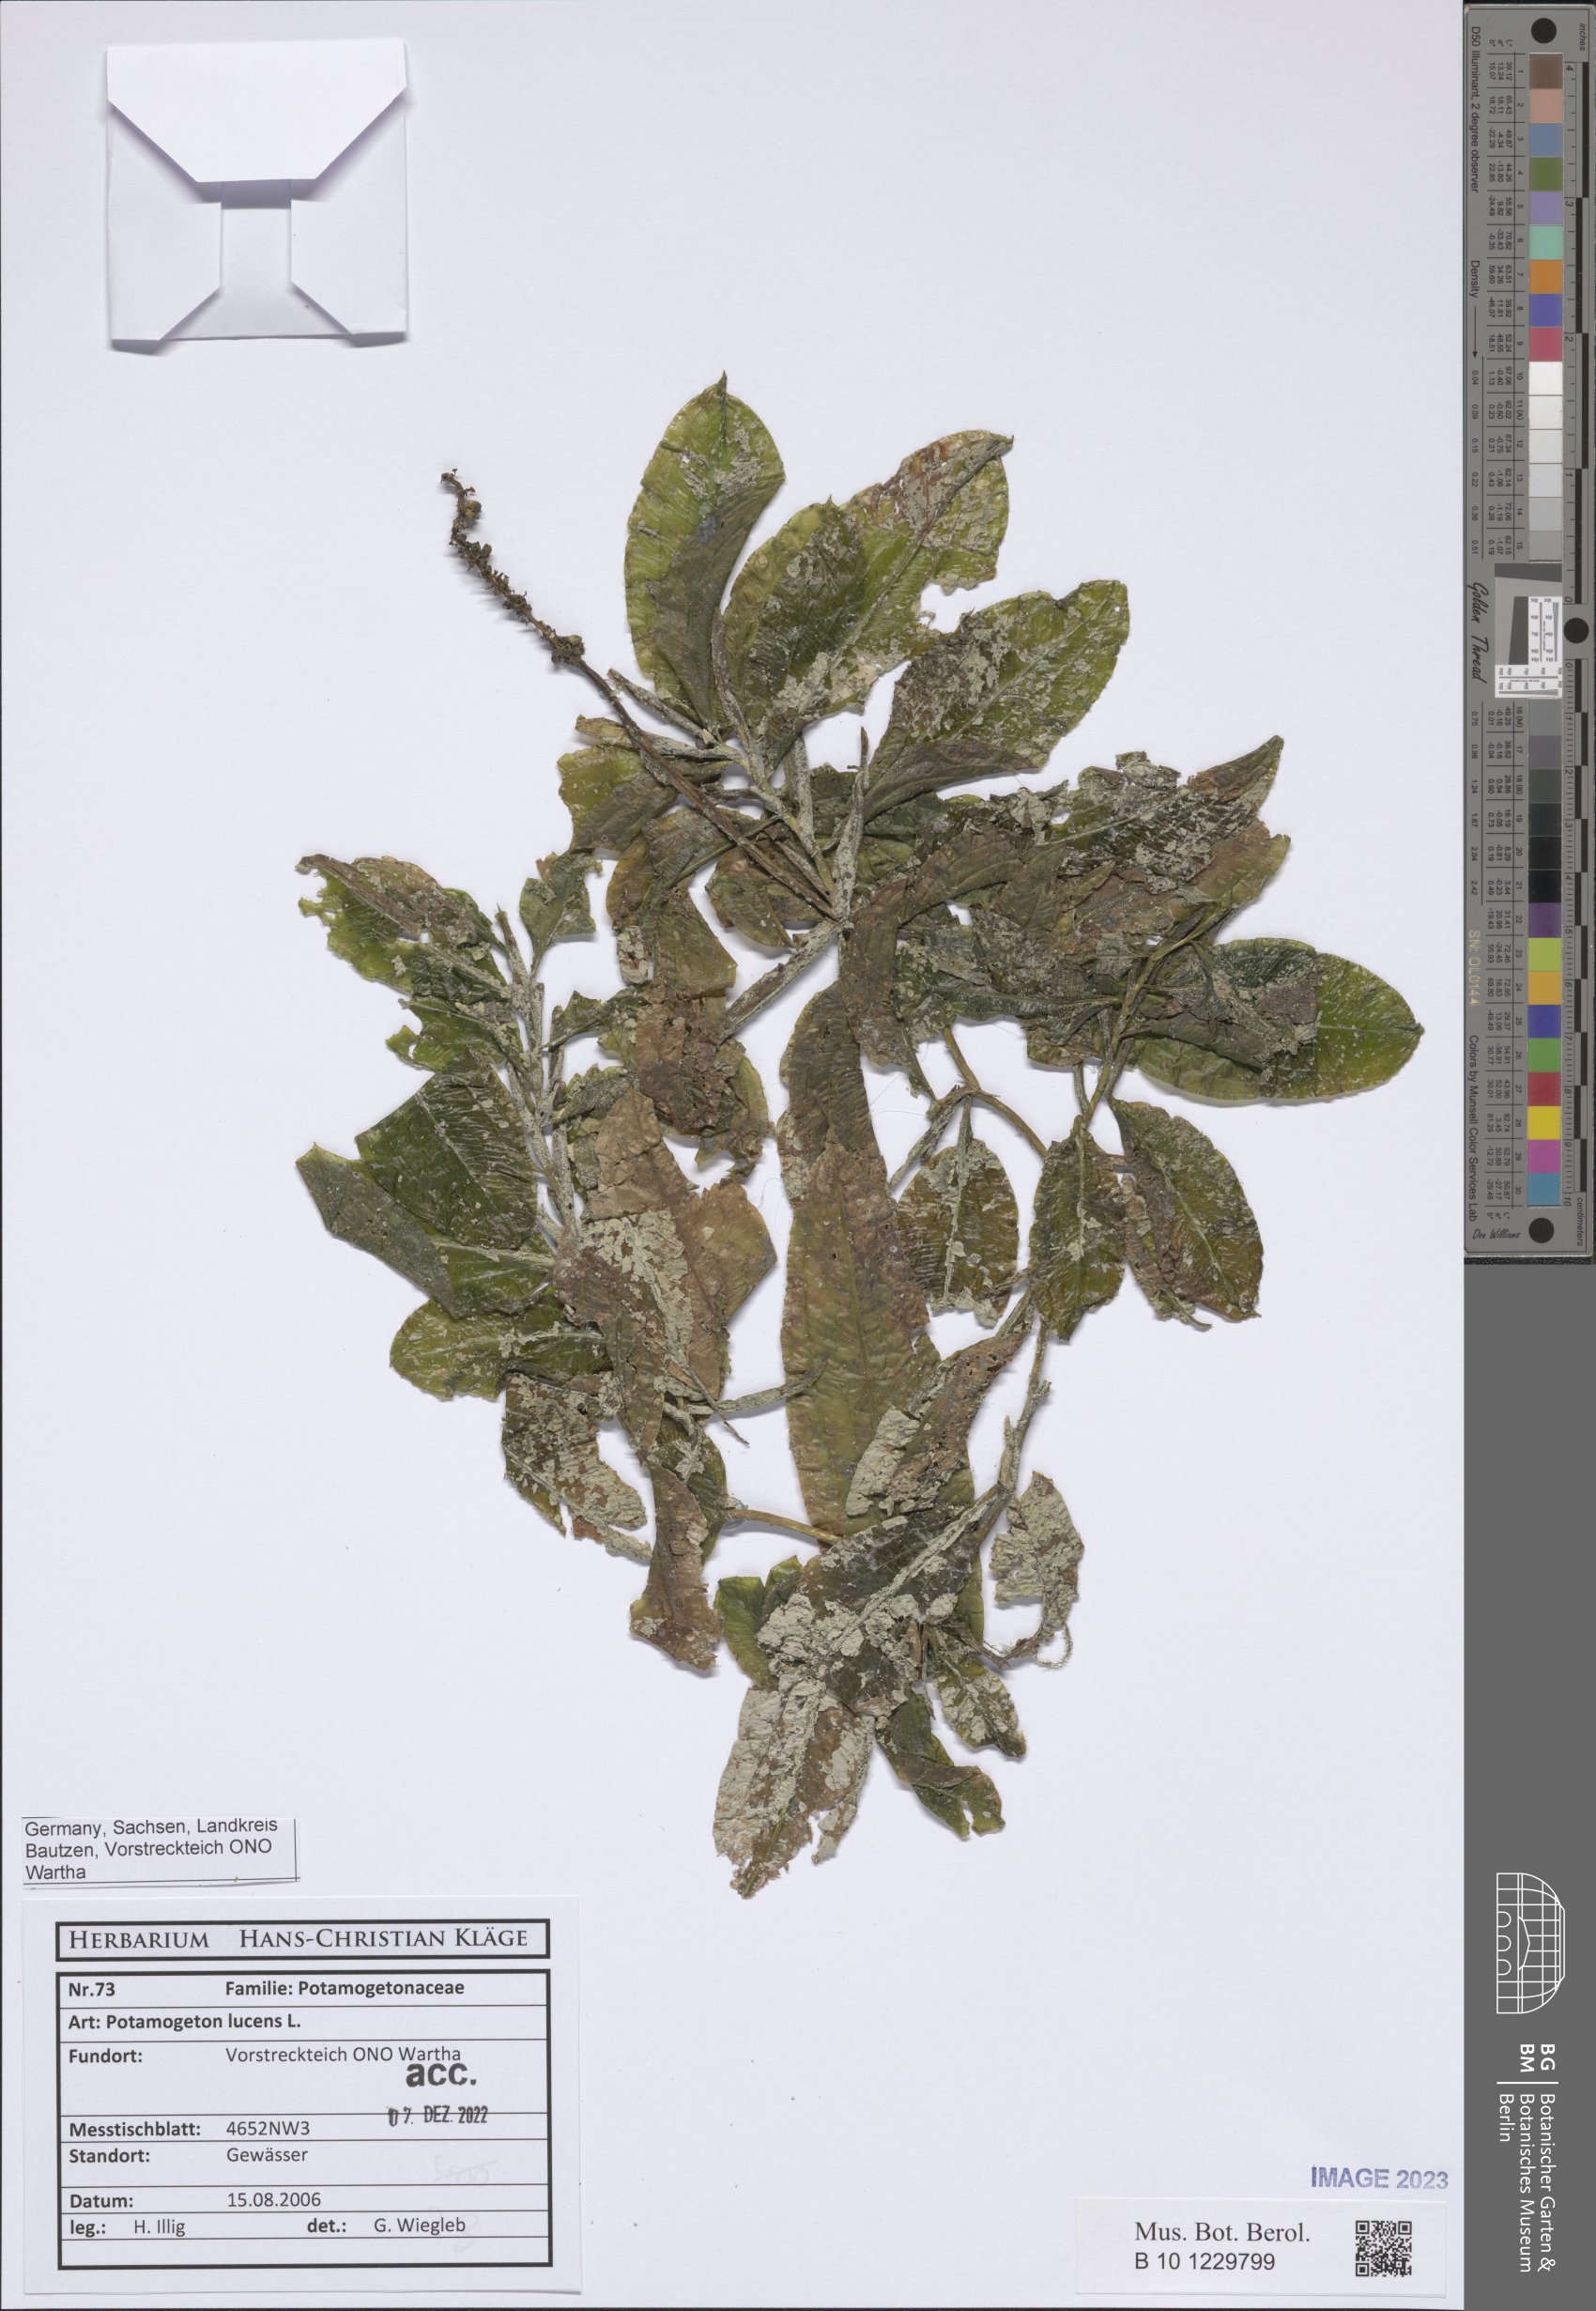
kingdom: Plantae
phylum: Tracheophyta
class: Liliopsida
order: Alismatales
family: Potamogetonaceae
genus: Potamogeton
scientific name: Potamogeton lucens
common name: Shining pondweed
